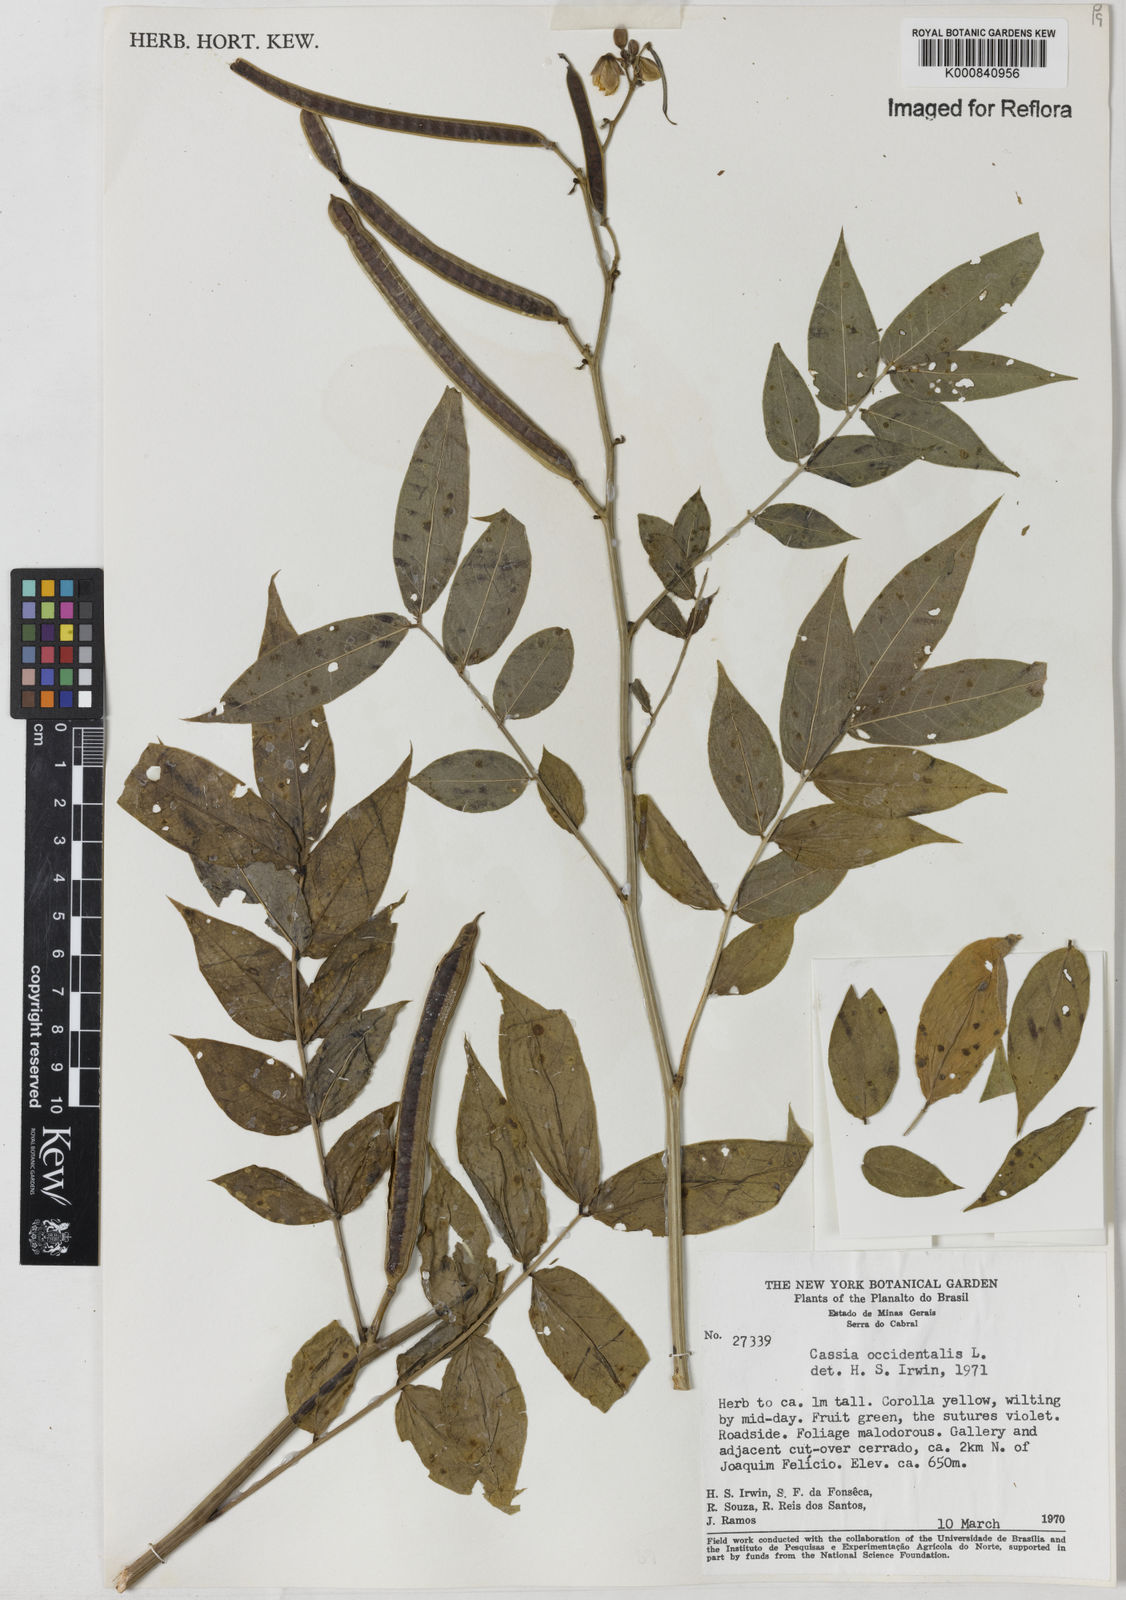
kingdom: Plantae
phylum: Tracheophyta
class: Magnoliopsida
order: Fabales
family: Fabaceae
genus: Senna
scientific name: Senna occidentalis
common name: Septicweed
